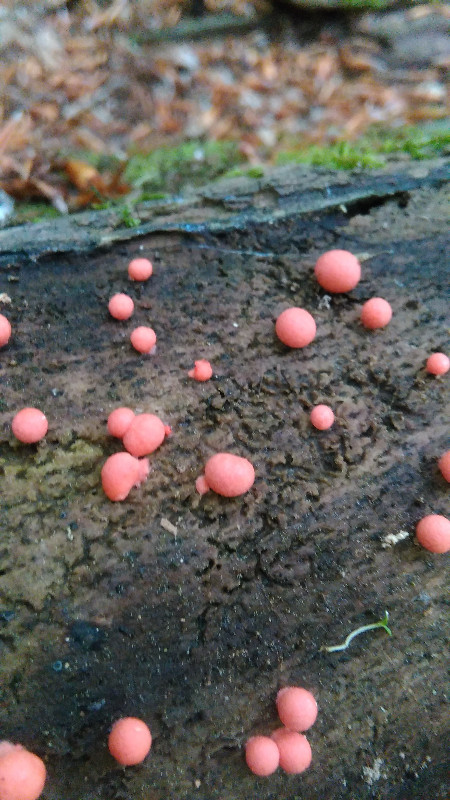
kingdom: Protozoa
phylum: Mycetozoa
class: Myxomycetes
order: Cribrariales
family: Tubiferaceae
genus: Lycogala
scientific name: Lycogala epidendrum
